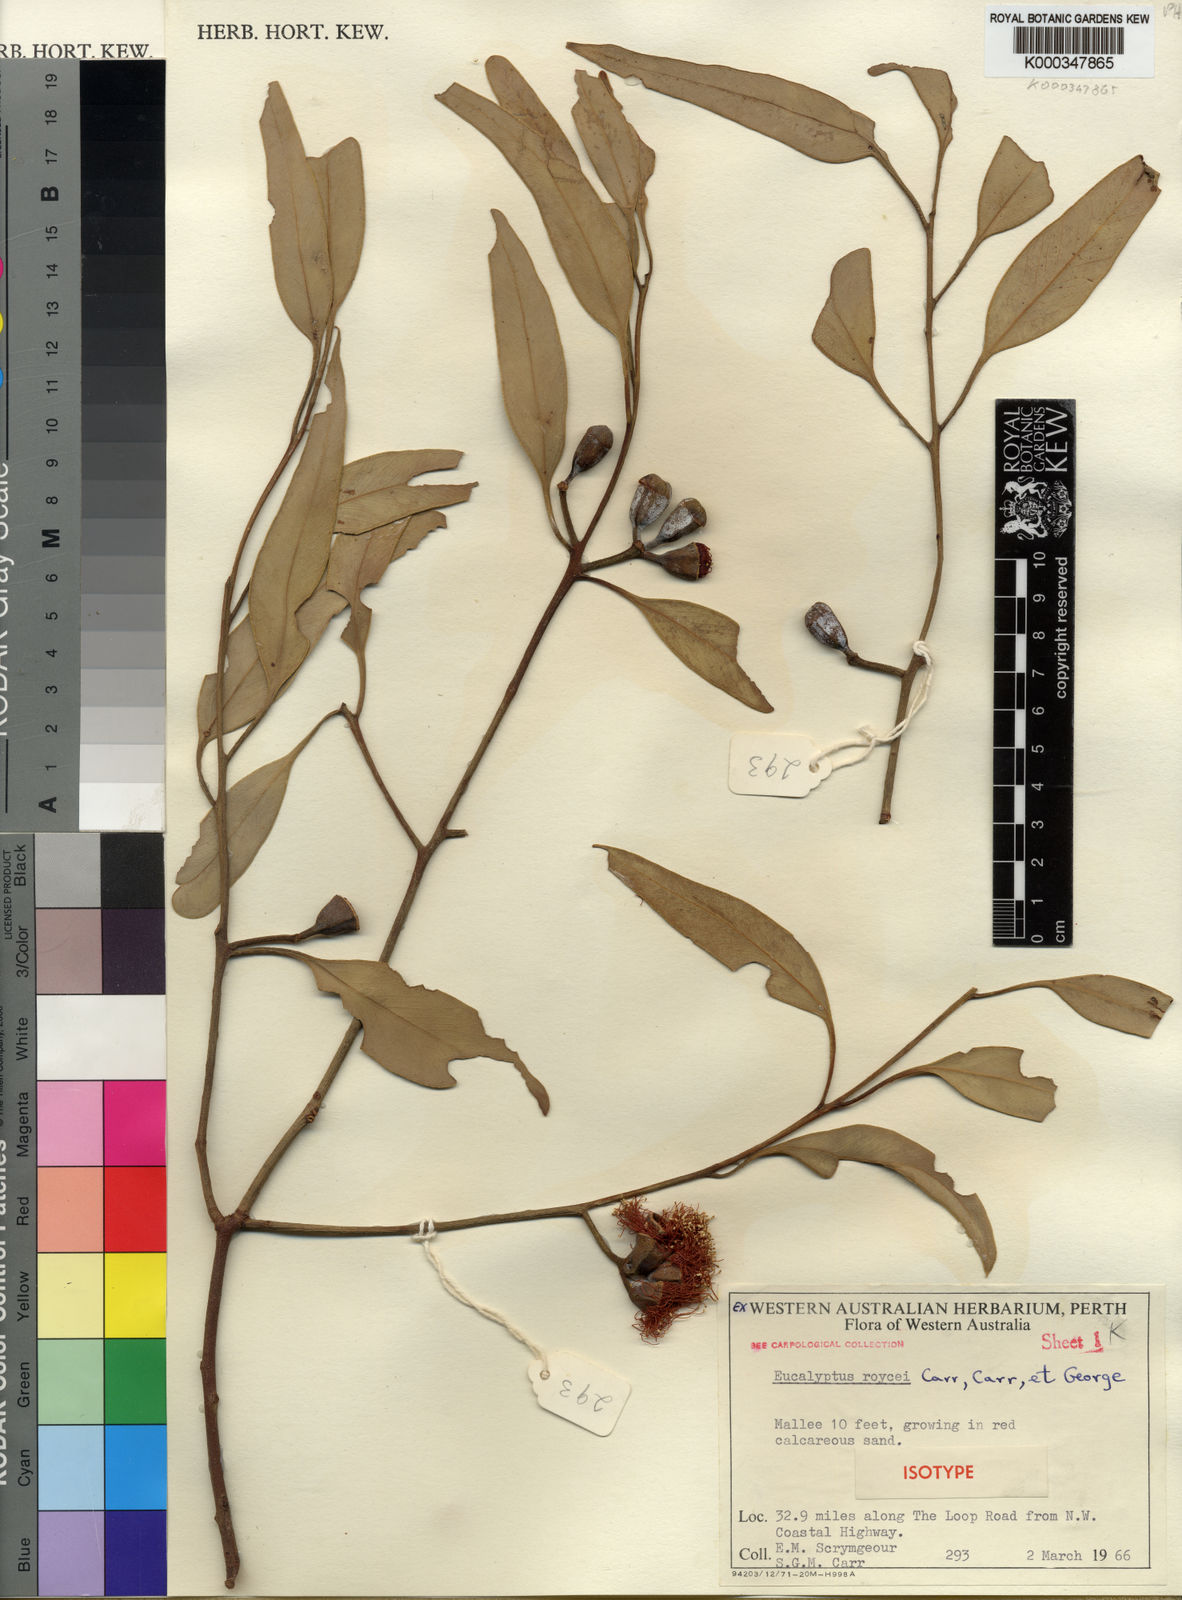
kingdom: Plantae
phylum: Tracheophyta
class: Magnoliopsida
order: Myrtales
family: Myrtaceae
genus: Eucalyptus
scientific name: Eucalyptus roycei
